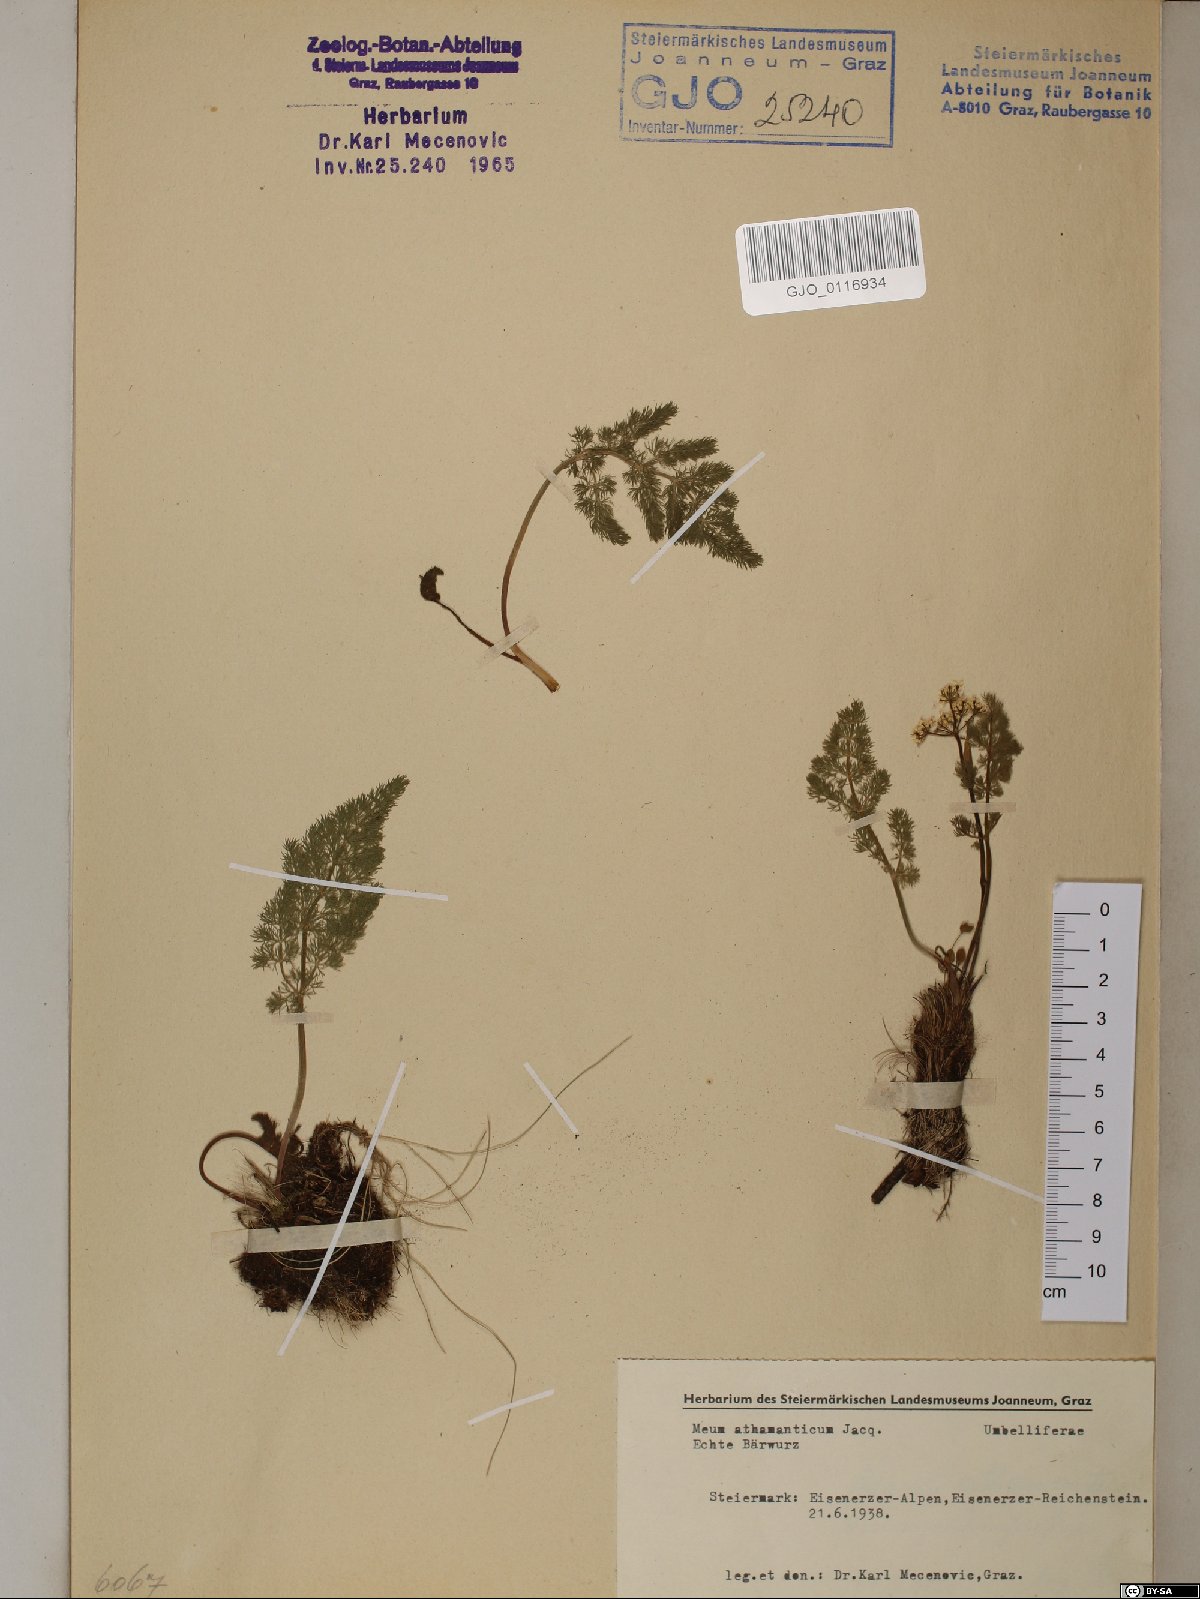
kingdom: Plantae
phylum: Tracheophyta
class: Magnoliopsida
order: Apiales
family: Apiaceae
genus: Meum
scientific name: Meum athamanticum
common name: Spignel
